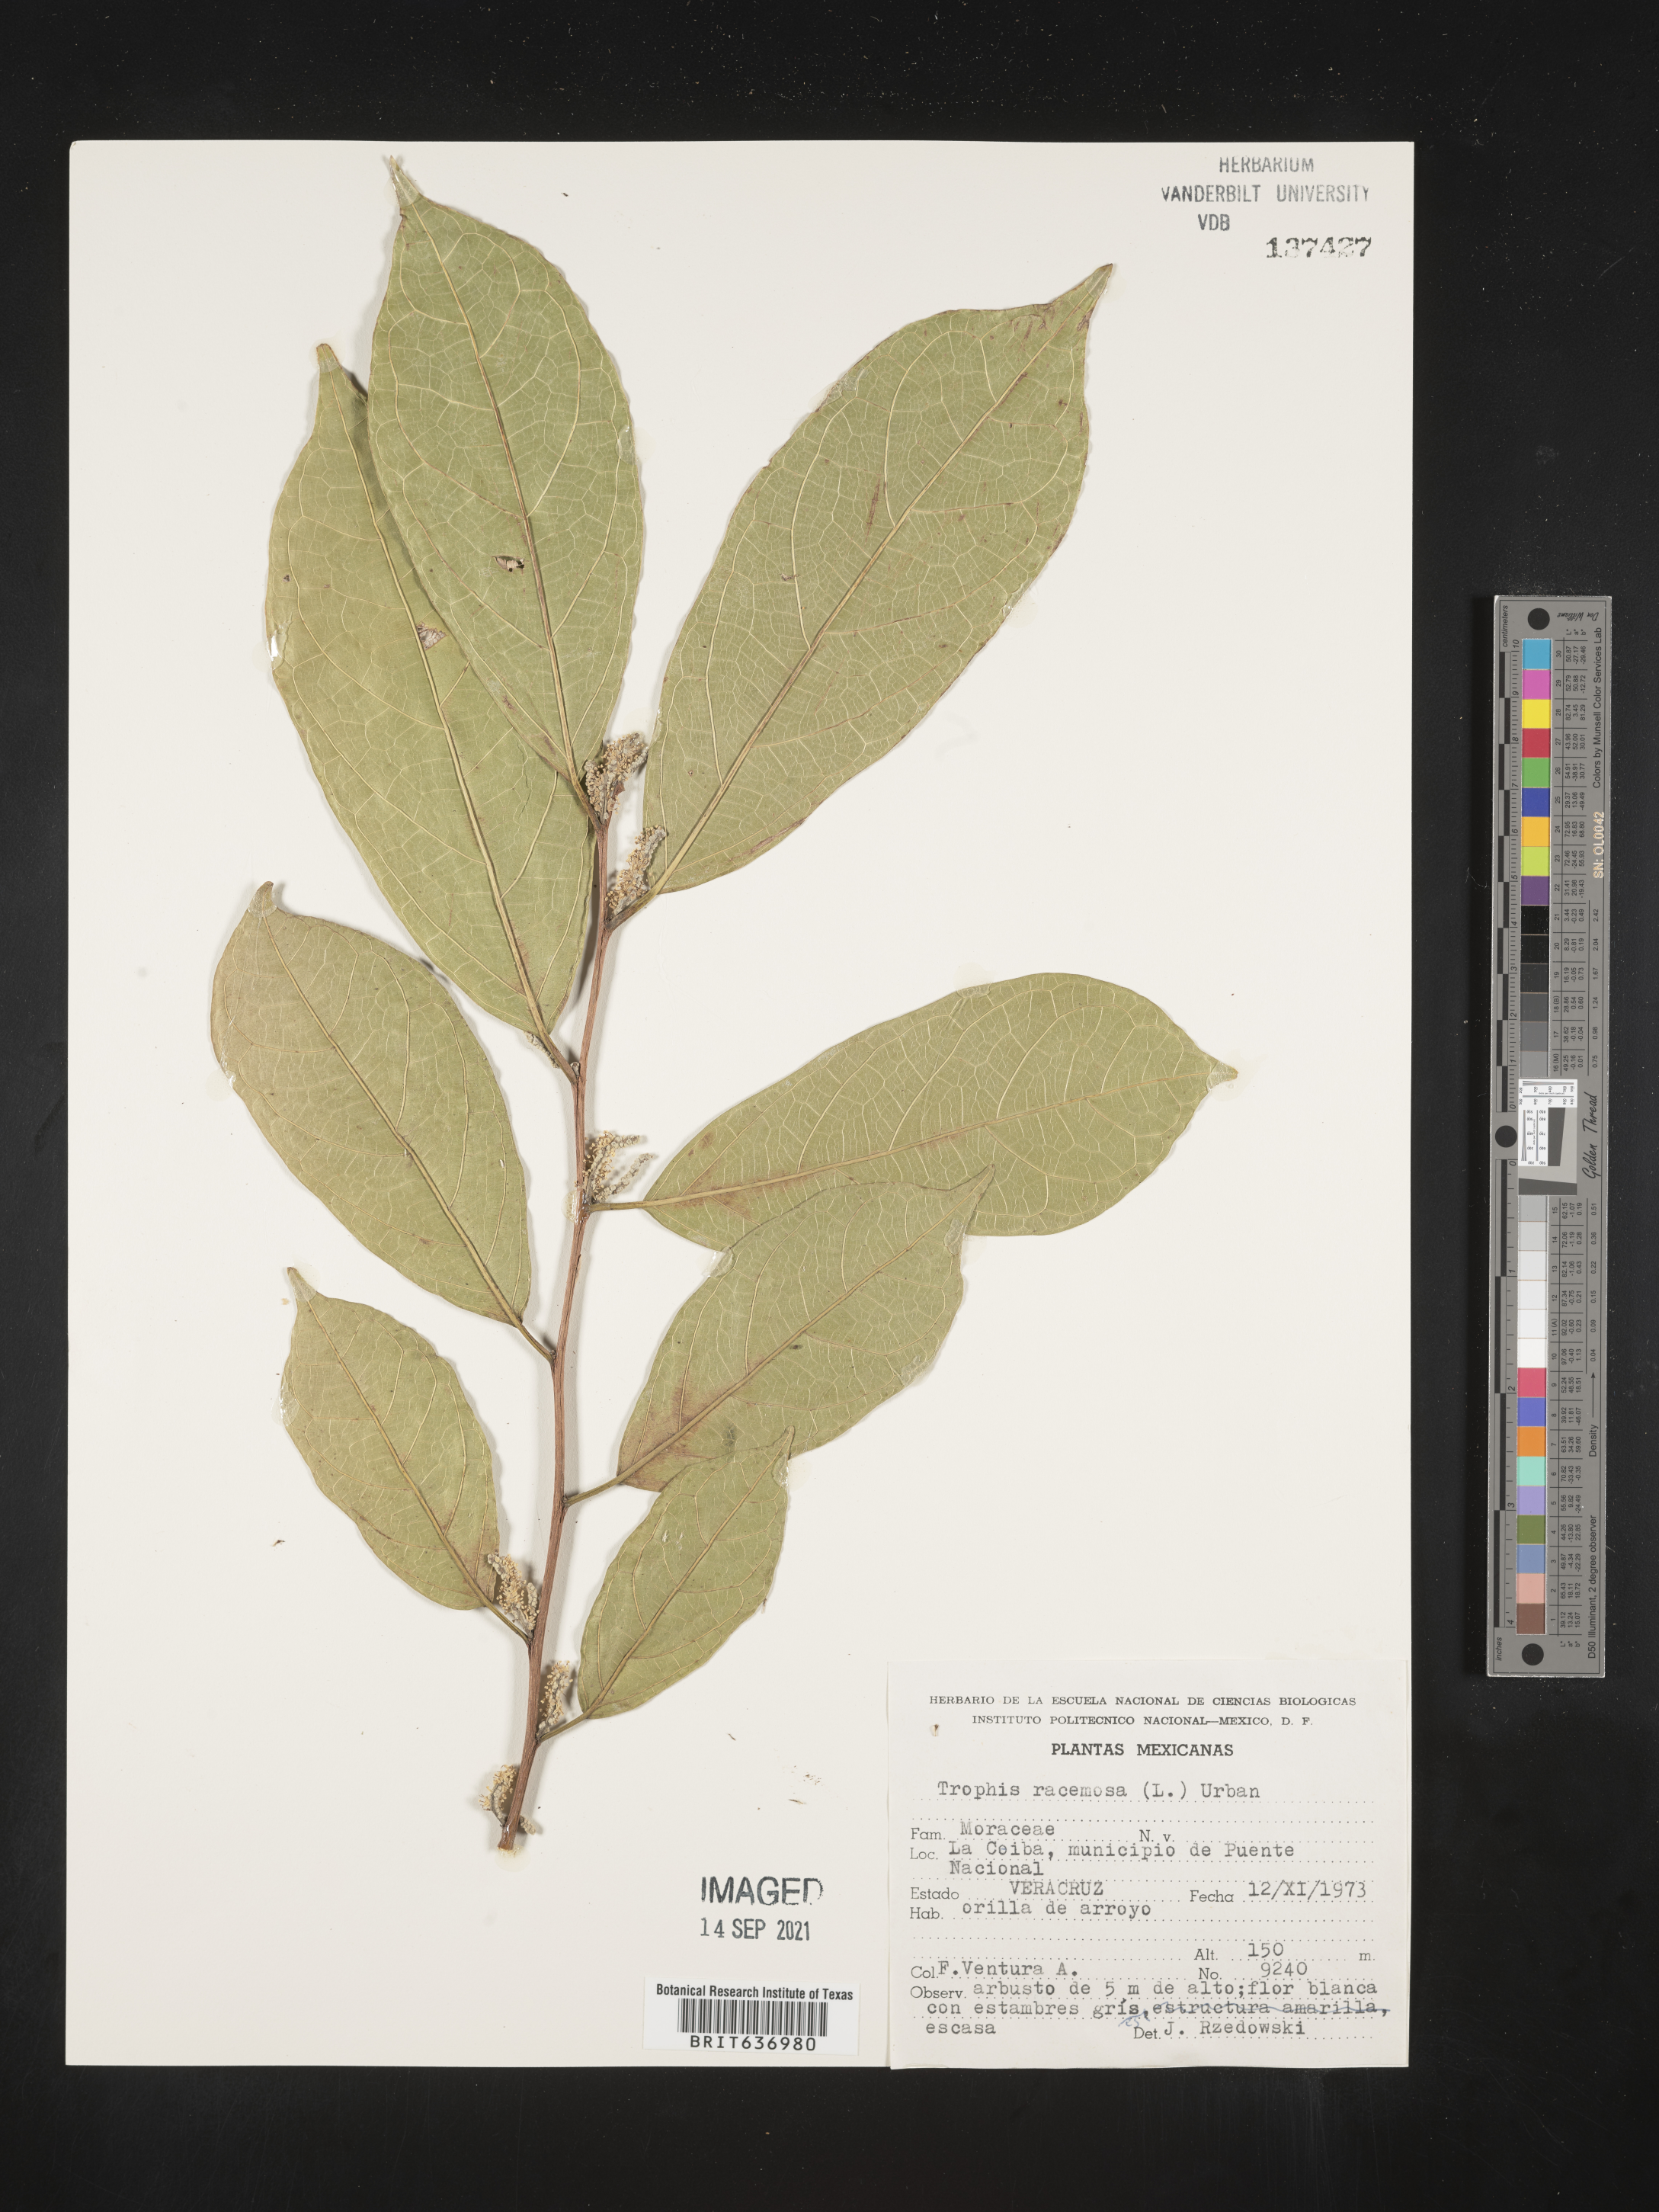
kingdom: Plantae
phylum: Tracheophyta
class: Magnoliopsida
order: Rosales
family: Moraceae
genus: Trophis
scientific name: Trophis
